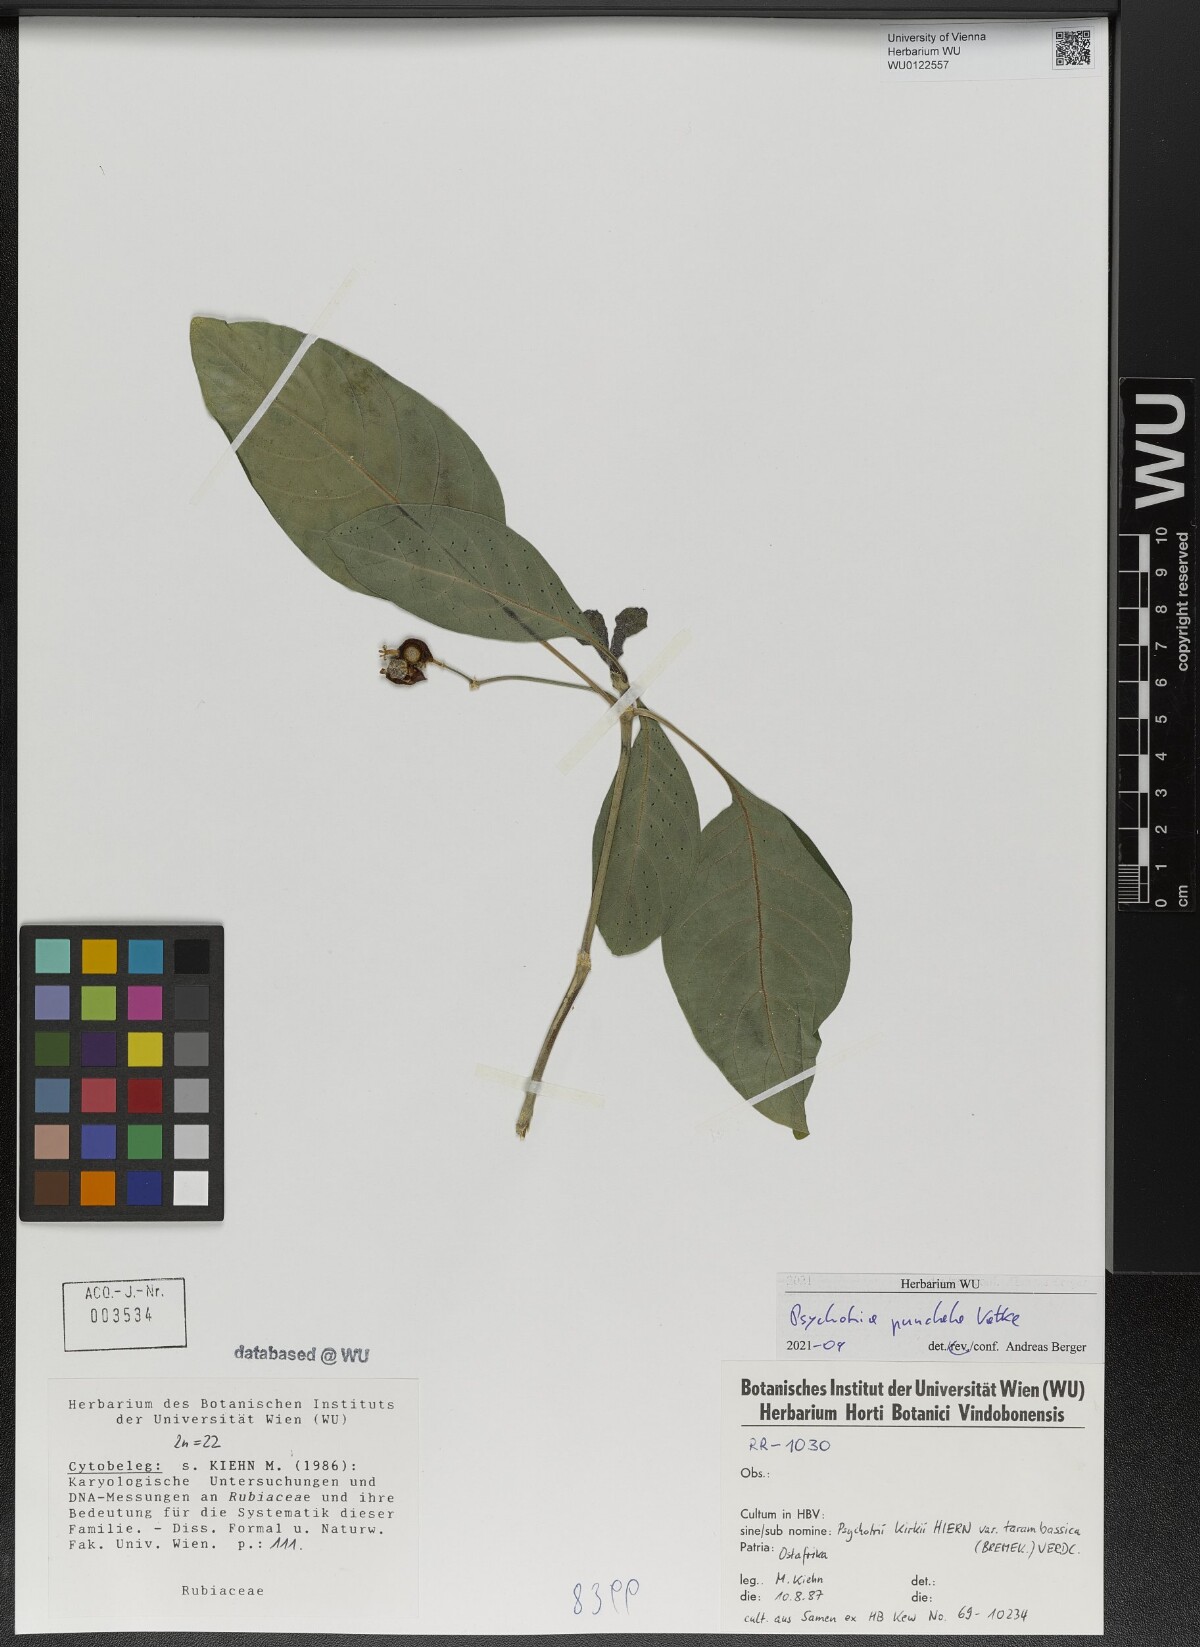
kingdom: Plantae
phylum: Tracheophyta
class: Magnoliopsida
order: Gentianales
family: Rubiaceae
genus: Psychotria
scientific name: Psychotria punctata
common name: Dotted wild coffee
